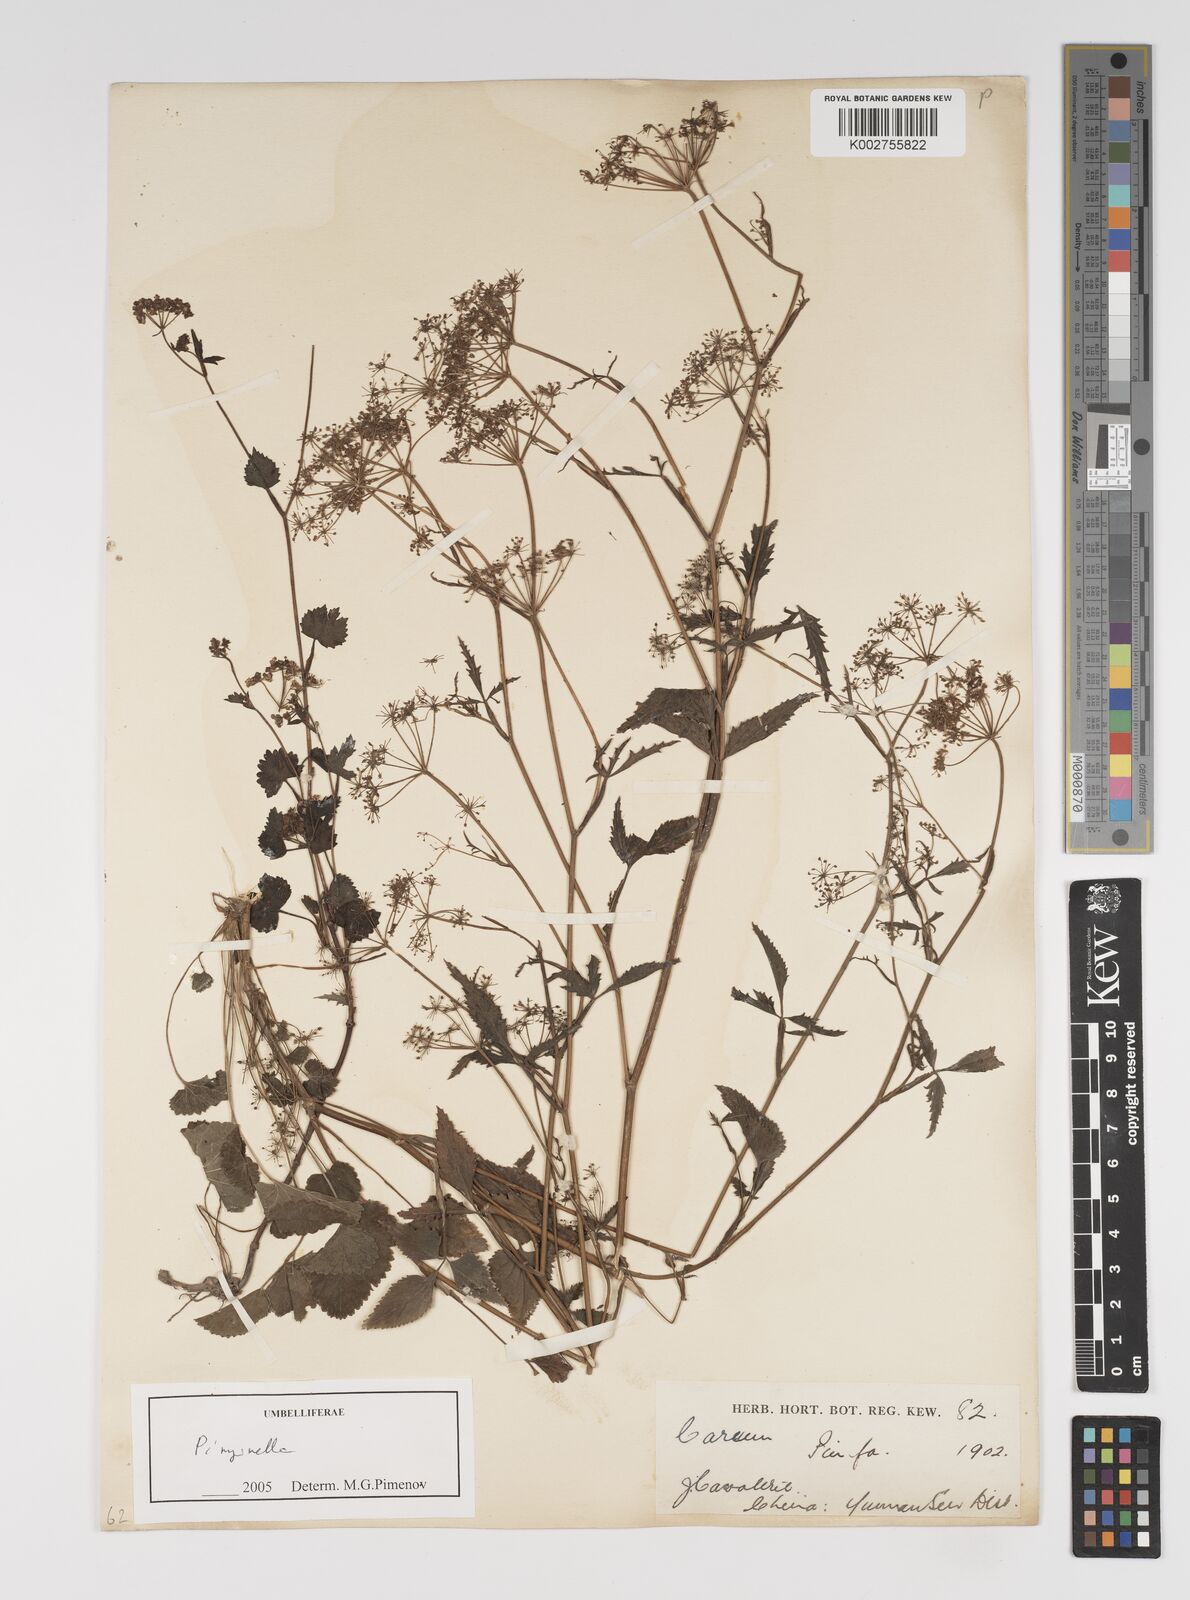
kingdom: Plantae
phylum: Tracheophyta
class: Magnoliopsida
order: Apiales
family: Apiaceae
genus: Pimpinella
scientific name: Pimpinella
